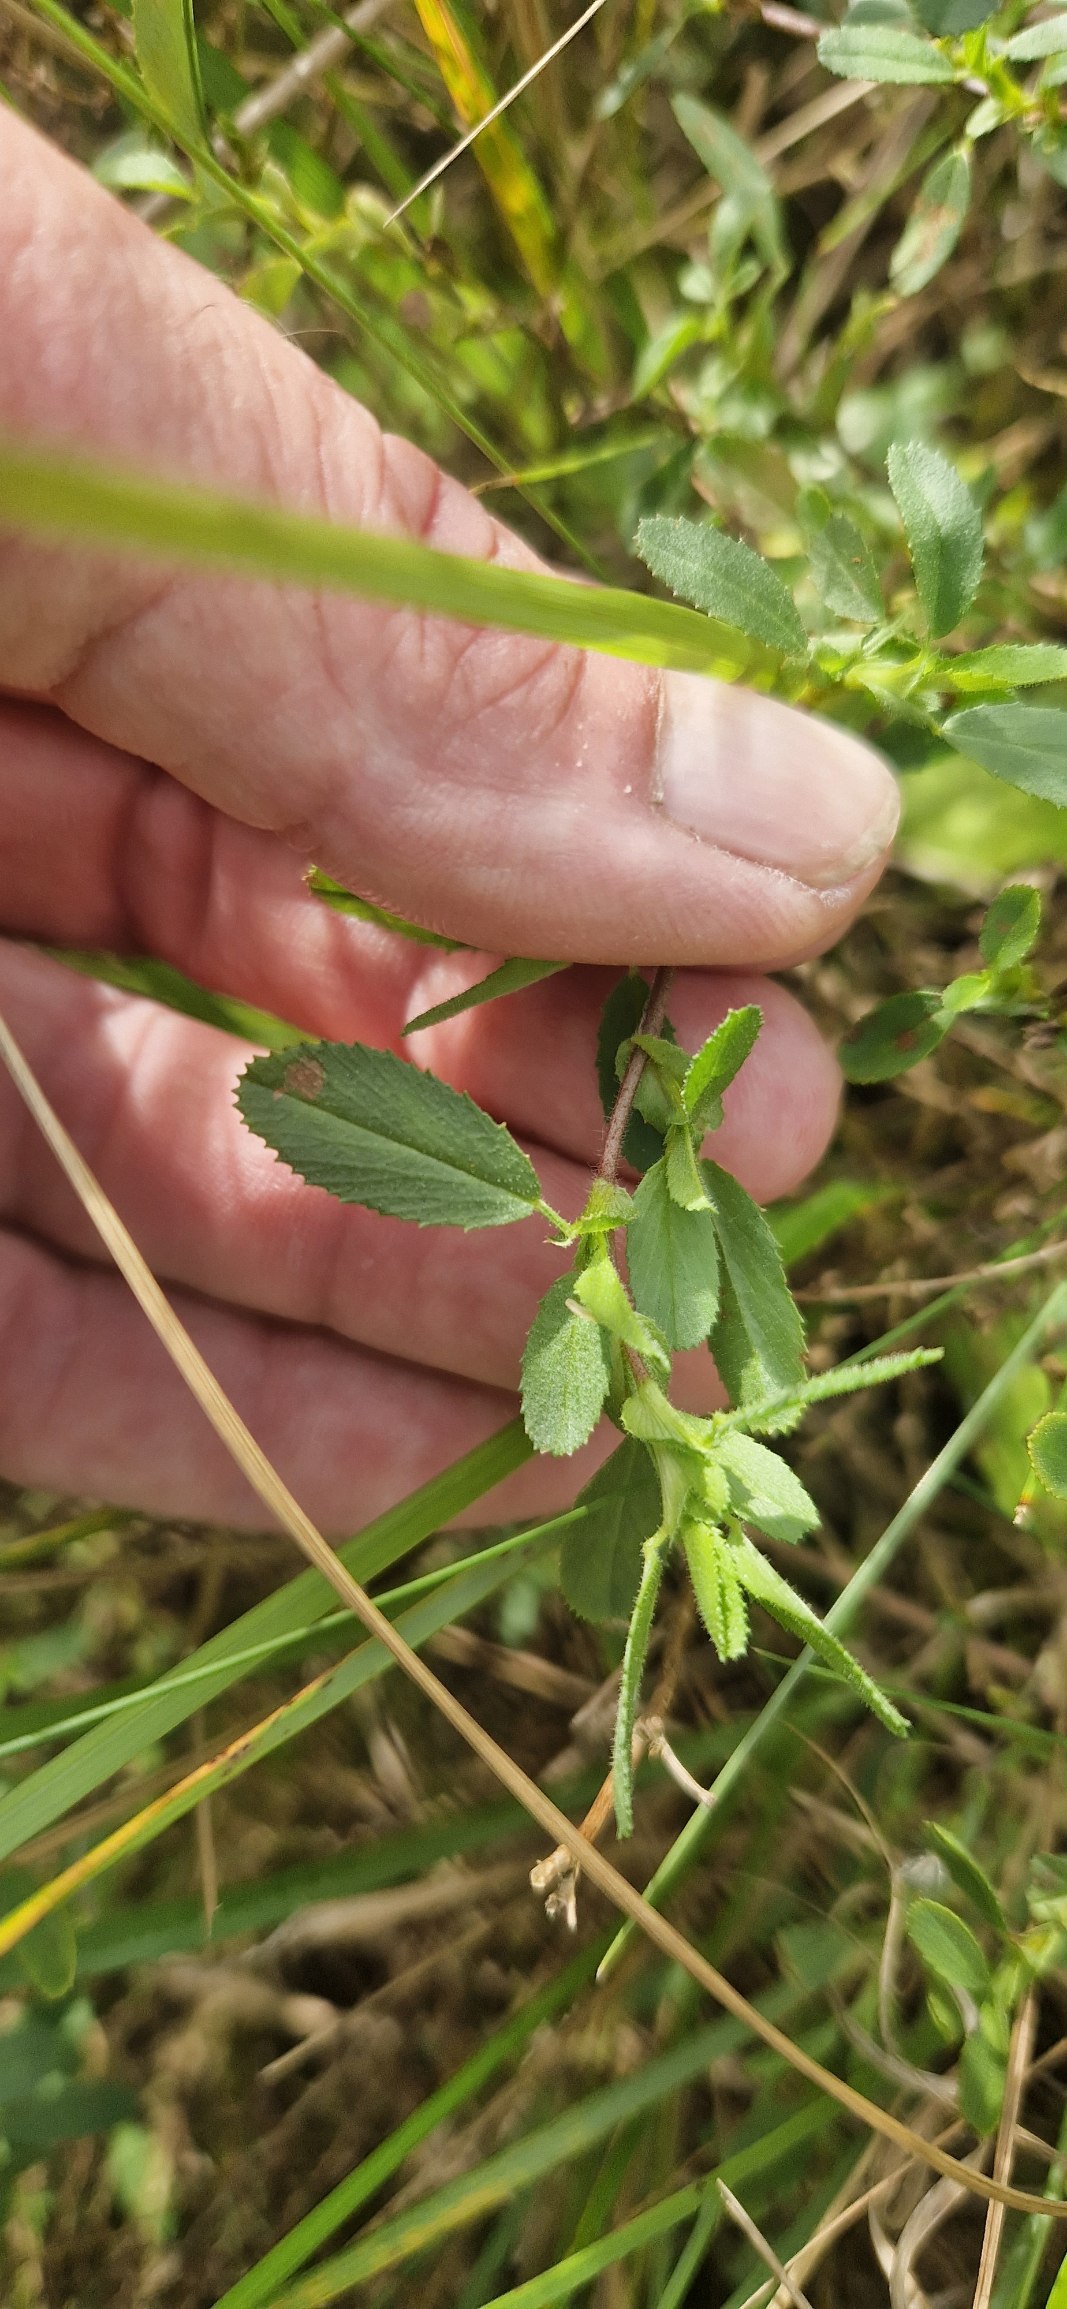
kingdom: Plantae
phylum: Tracheophyta
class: Magnoliopsida
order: Fabales
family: Fabaceae
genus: Ononis
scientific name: Ononis spinosa
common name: Mark-krageklo
